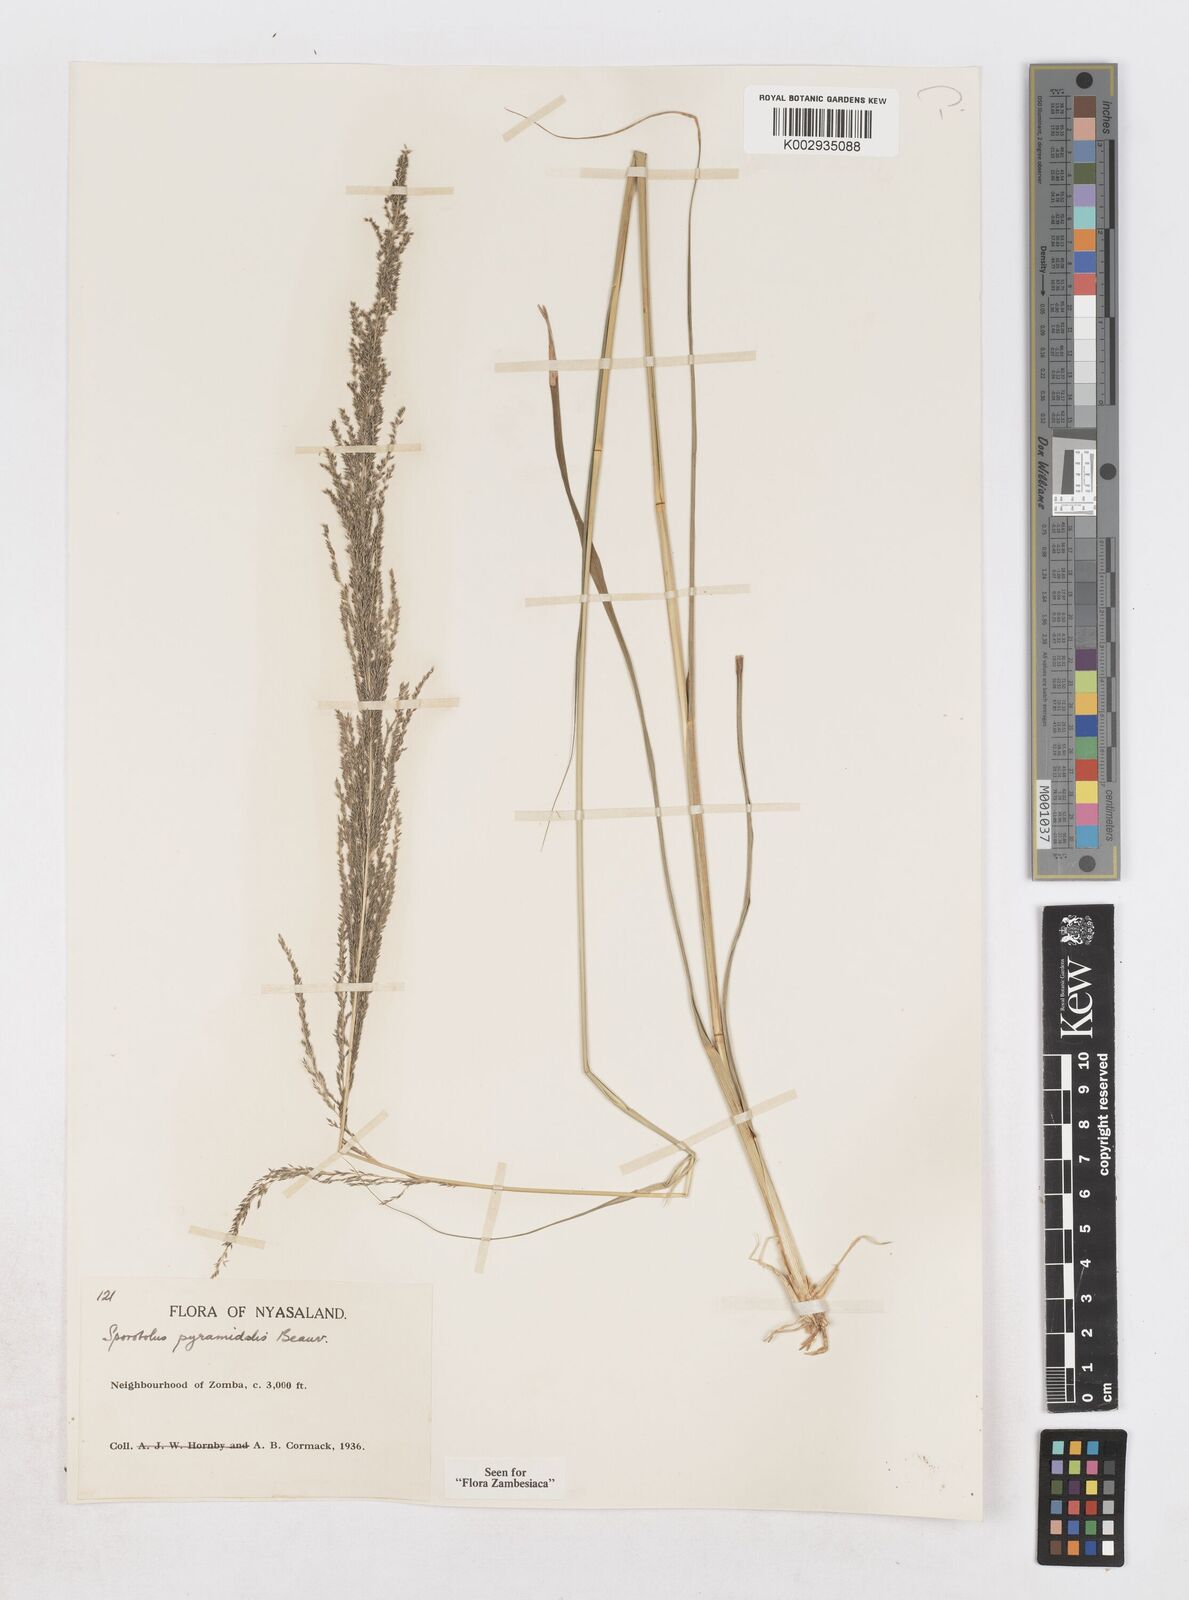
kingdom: Plantae
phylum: Tracheophyta
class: Liliopsida
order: Poales
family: Poaceae
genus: Sporobolus
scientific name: Sporobolus pyramidalis
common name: West indian dropseed
